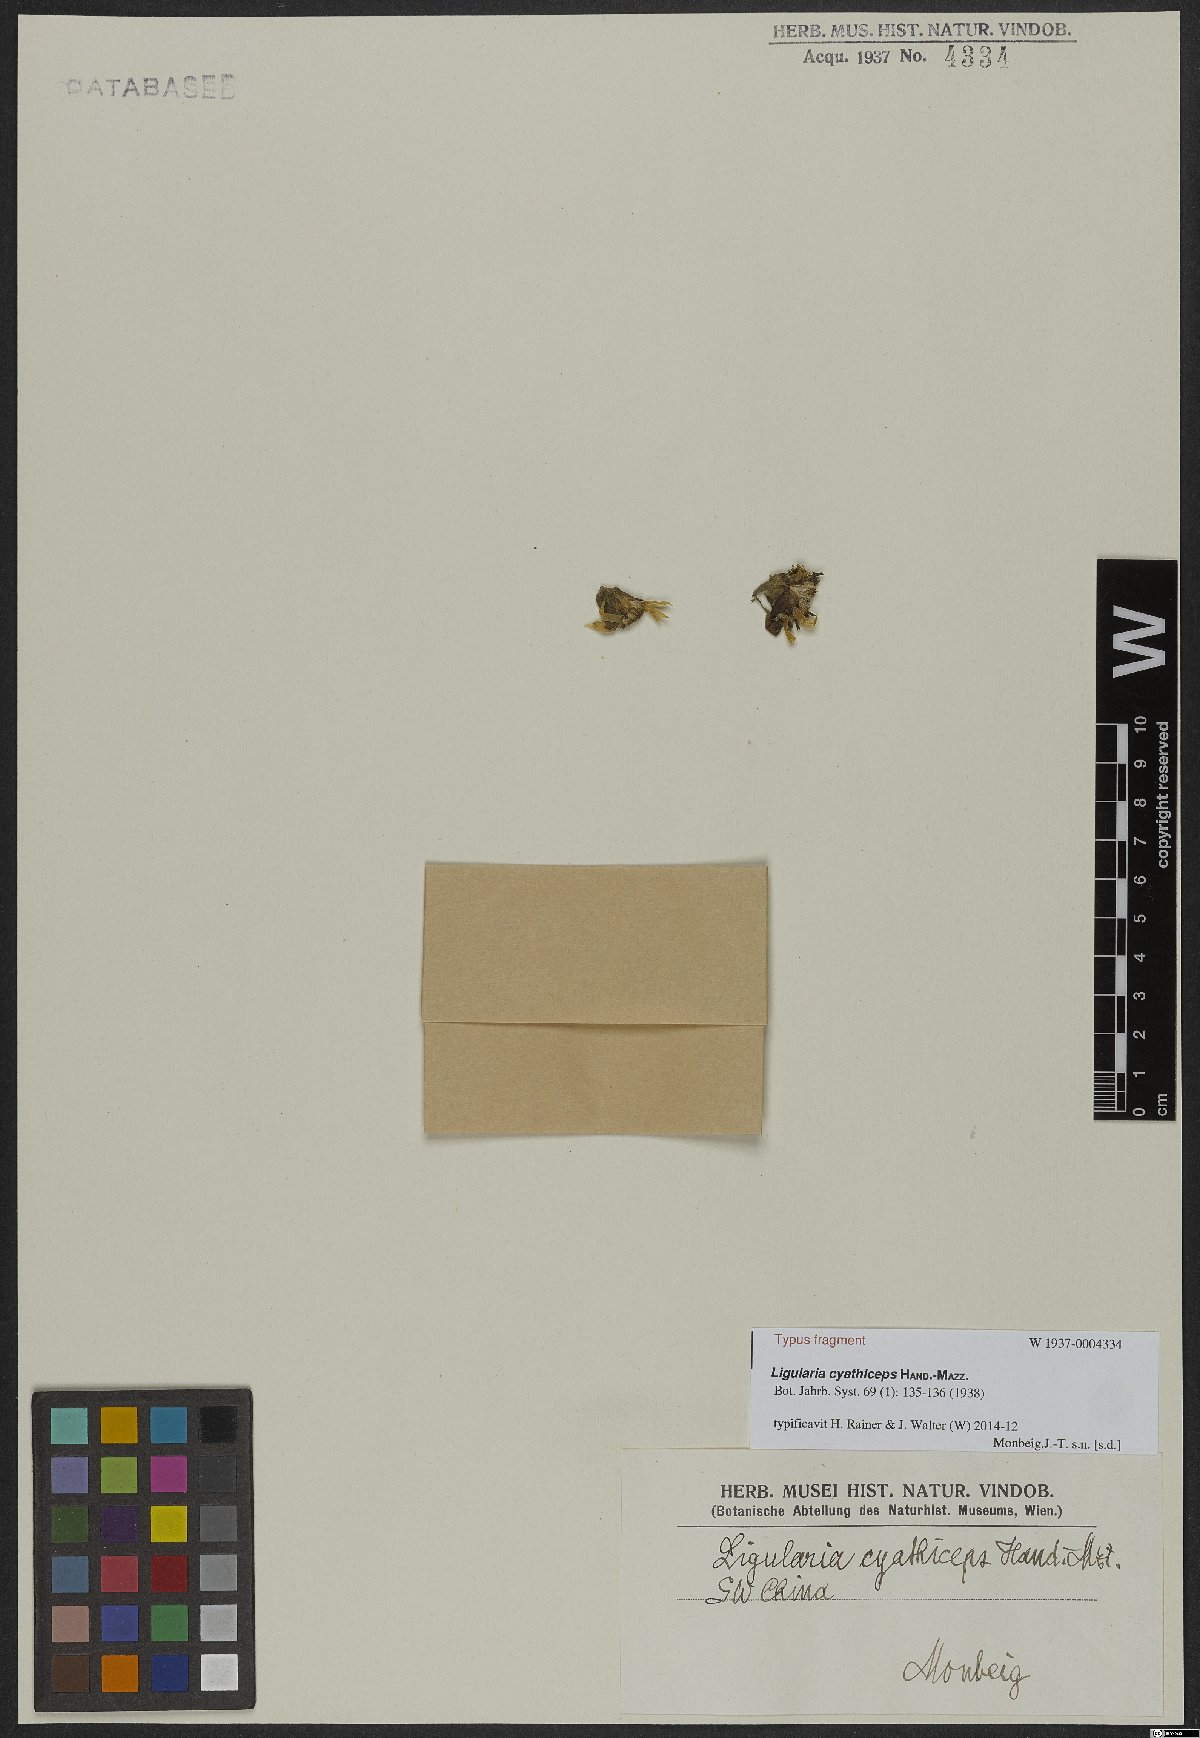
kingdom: Plantae
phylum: Tracheophyta
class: Magnoliopsida
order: Asterales
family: Asteraceae
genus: Ligularia
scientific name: Ligularia cyathiceps
